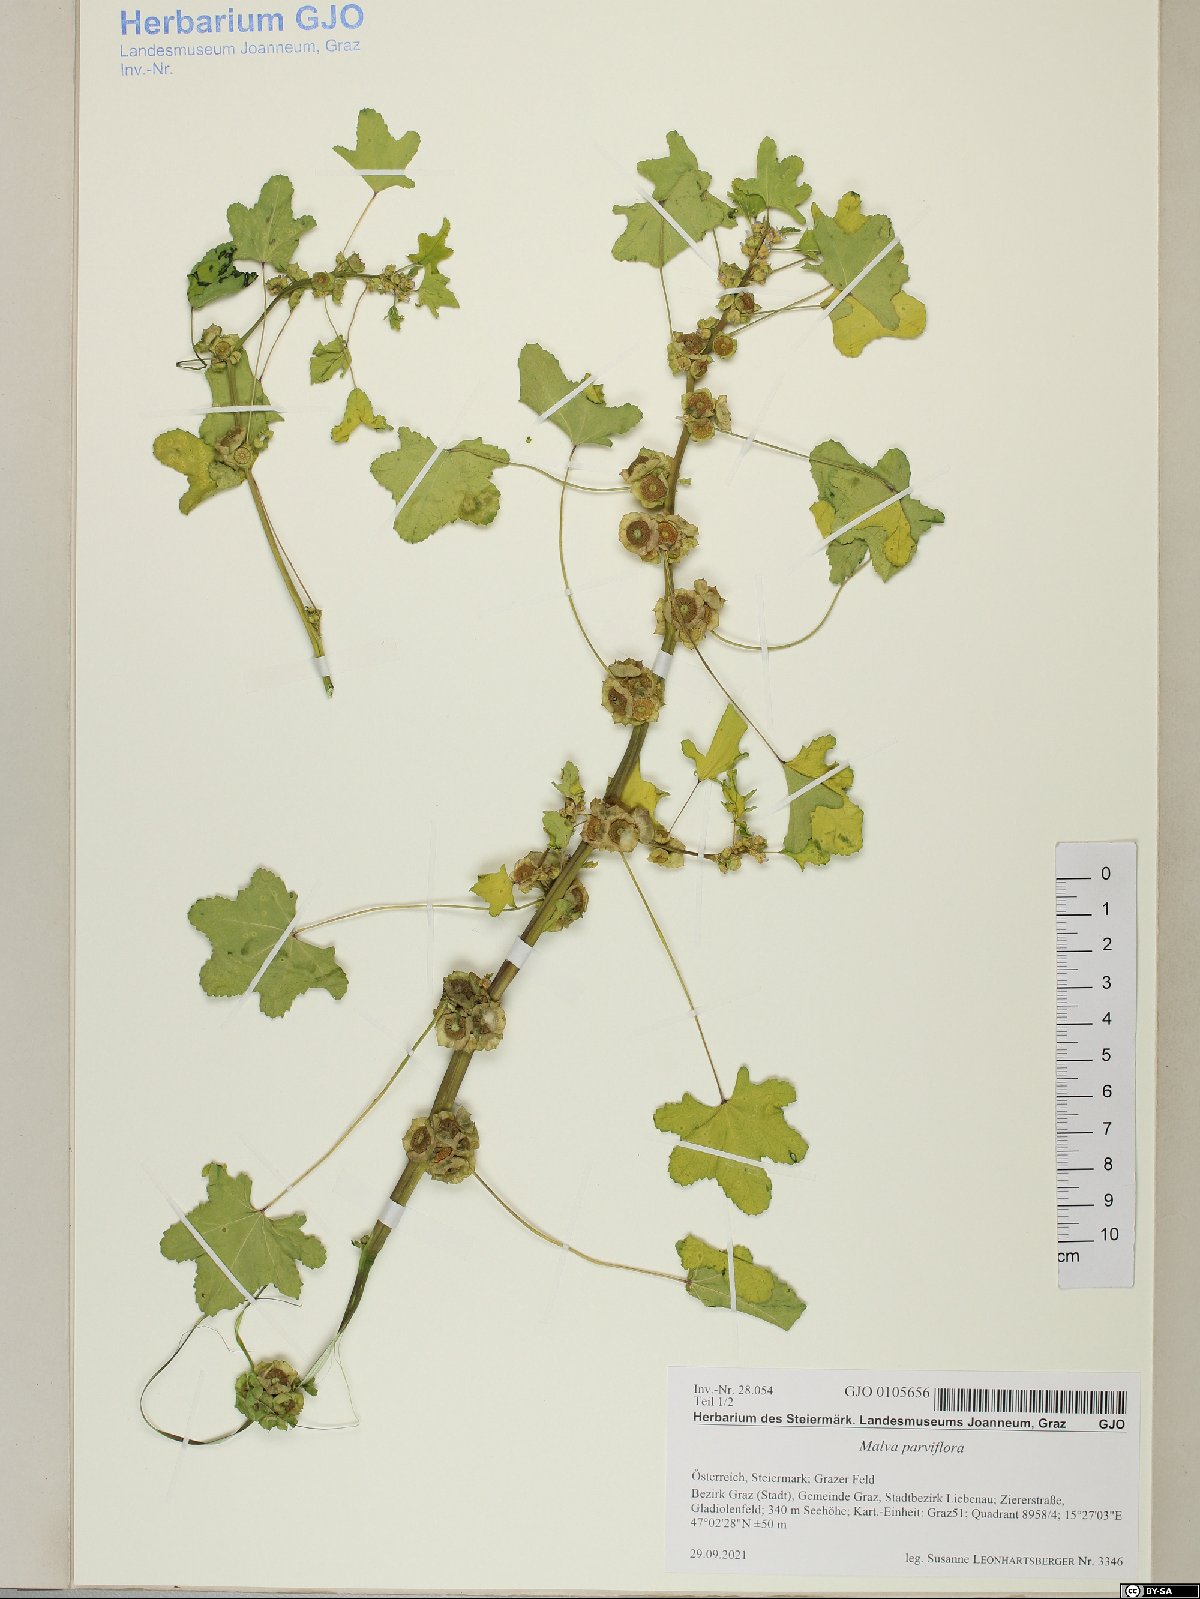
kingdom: Plantae
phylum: Tracheophyta
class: Magnoliopsida
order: Malvales
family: Malvaceae
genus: Malva
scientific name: Malva parviflora
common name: Least mallow
